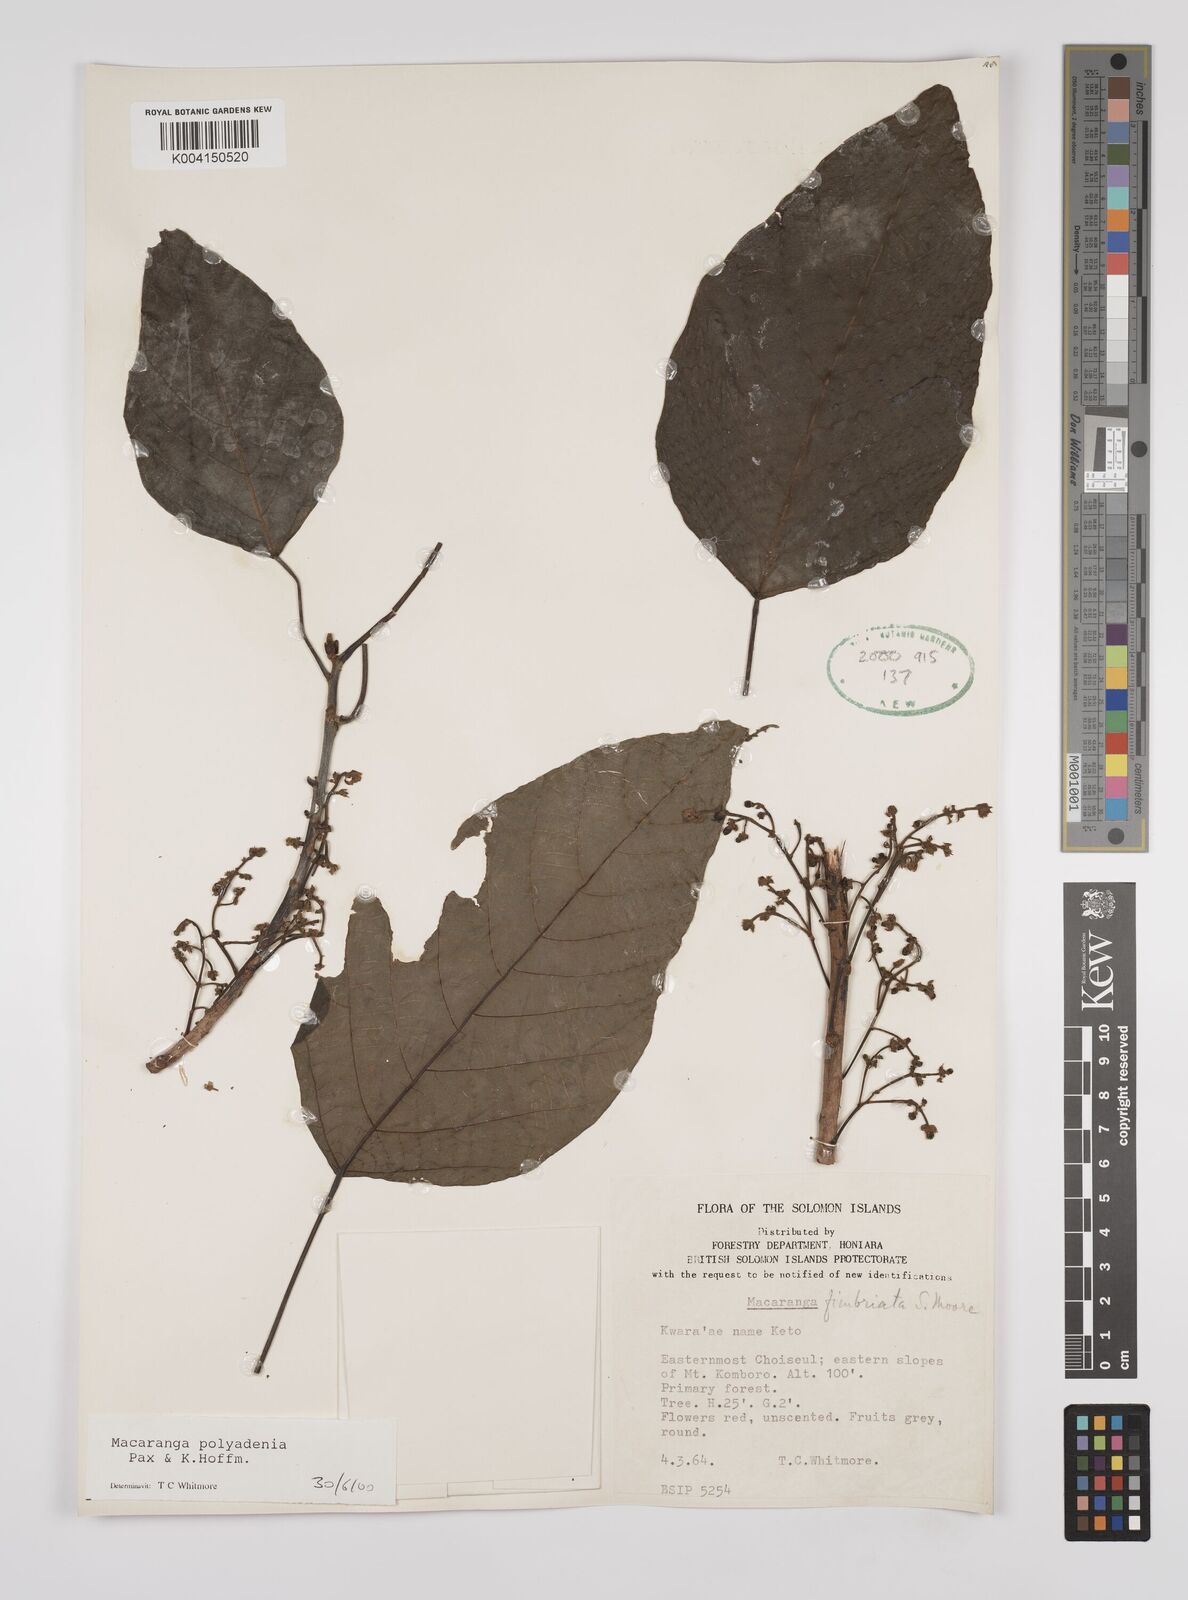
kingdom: Plantae
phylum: Tracheophyta
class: Magnoliopsida
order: Malpighiales
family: Euphorbiaceae
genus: Macaranga
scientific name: Macaranga polyadenia
